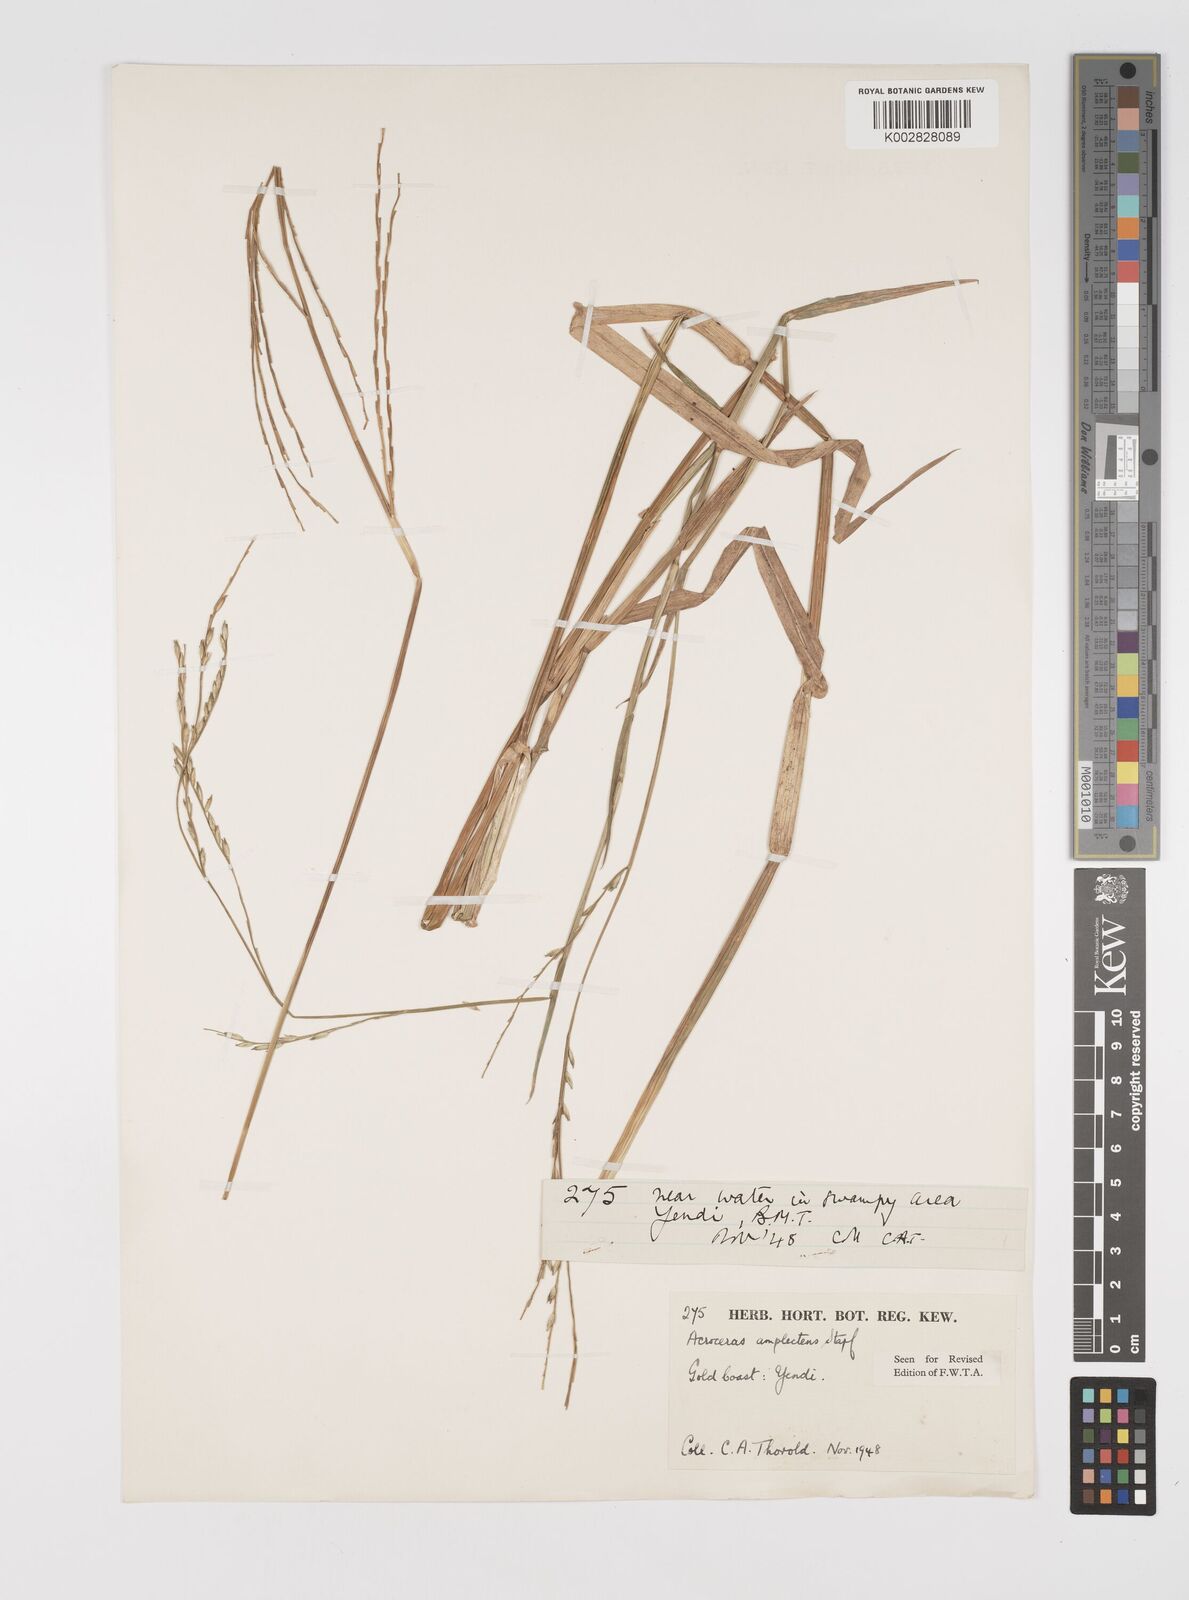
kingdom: Plantae
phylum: Tracheophyta
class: Liliopsida
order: Poales
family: Poaceae
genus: Acroceras
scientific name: Acroceras amplectens
